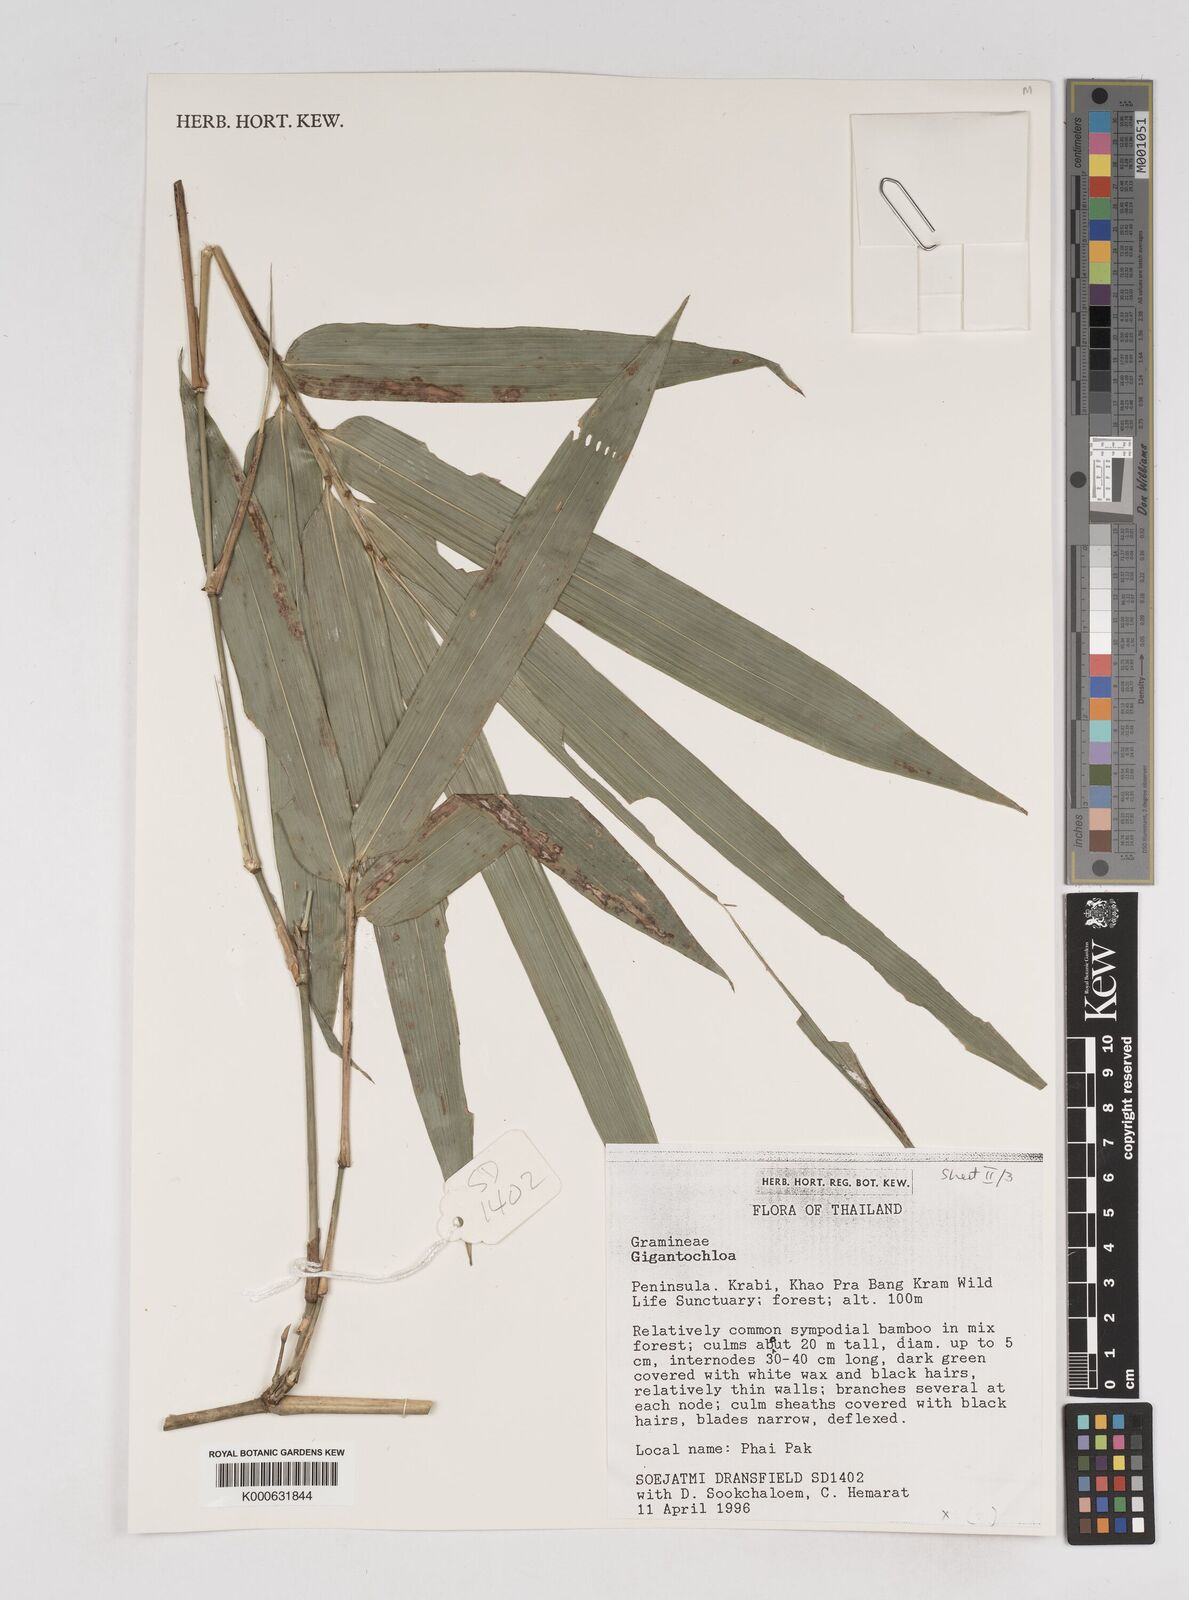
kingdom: Plantae
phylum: Tracheophyta
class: Liliopsida
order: Poales
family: Poaceae
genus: Gigantochloa
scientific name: Gigantochloa
